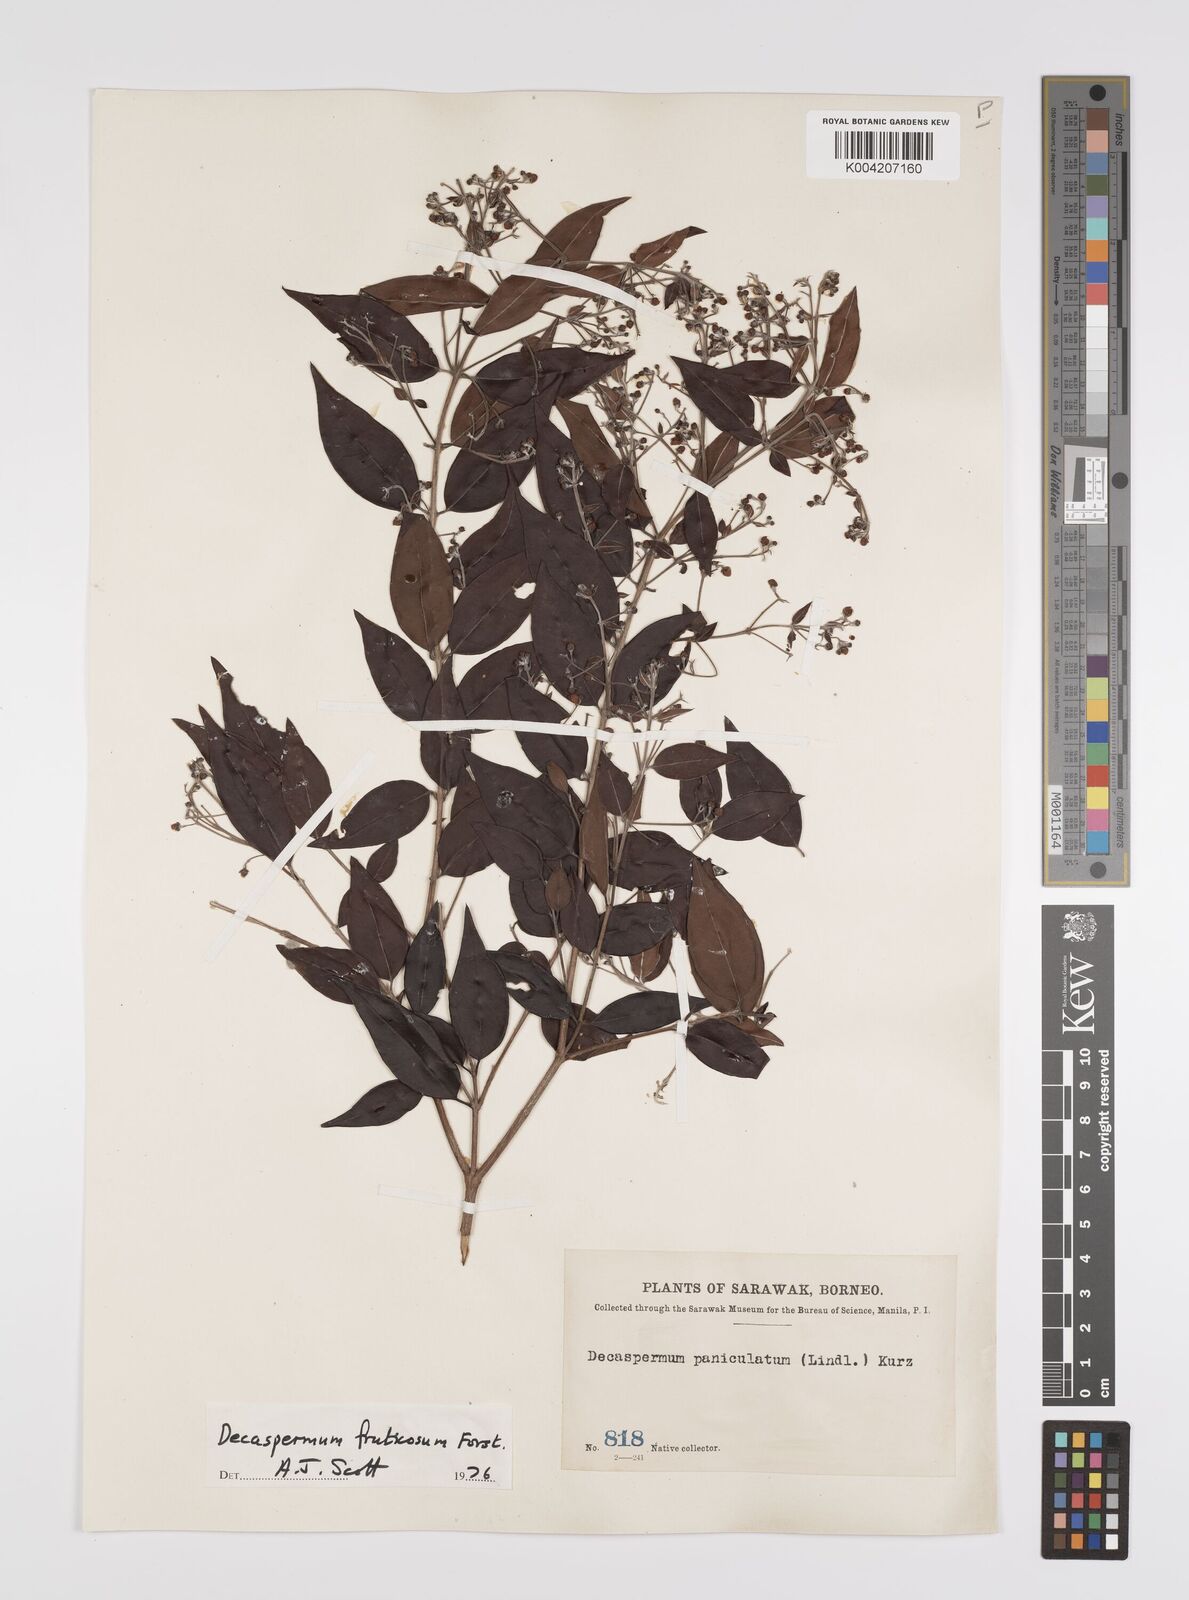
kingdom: Plantae
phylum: Tracheophyta
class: Magnoliopsida
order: Myrtales
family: Myrtaceae
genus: Decaspermum
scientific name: Decaspermum fruticosum
